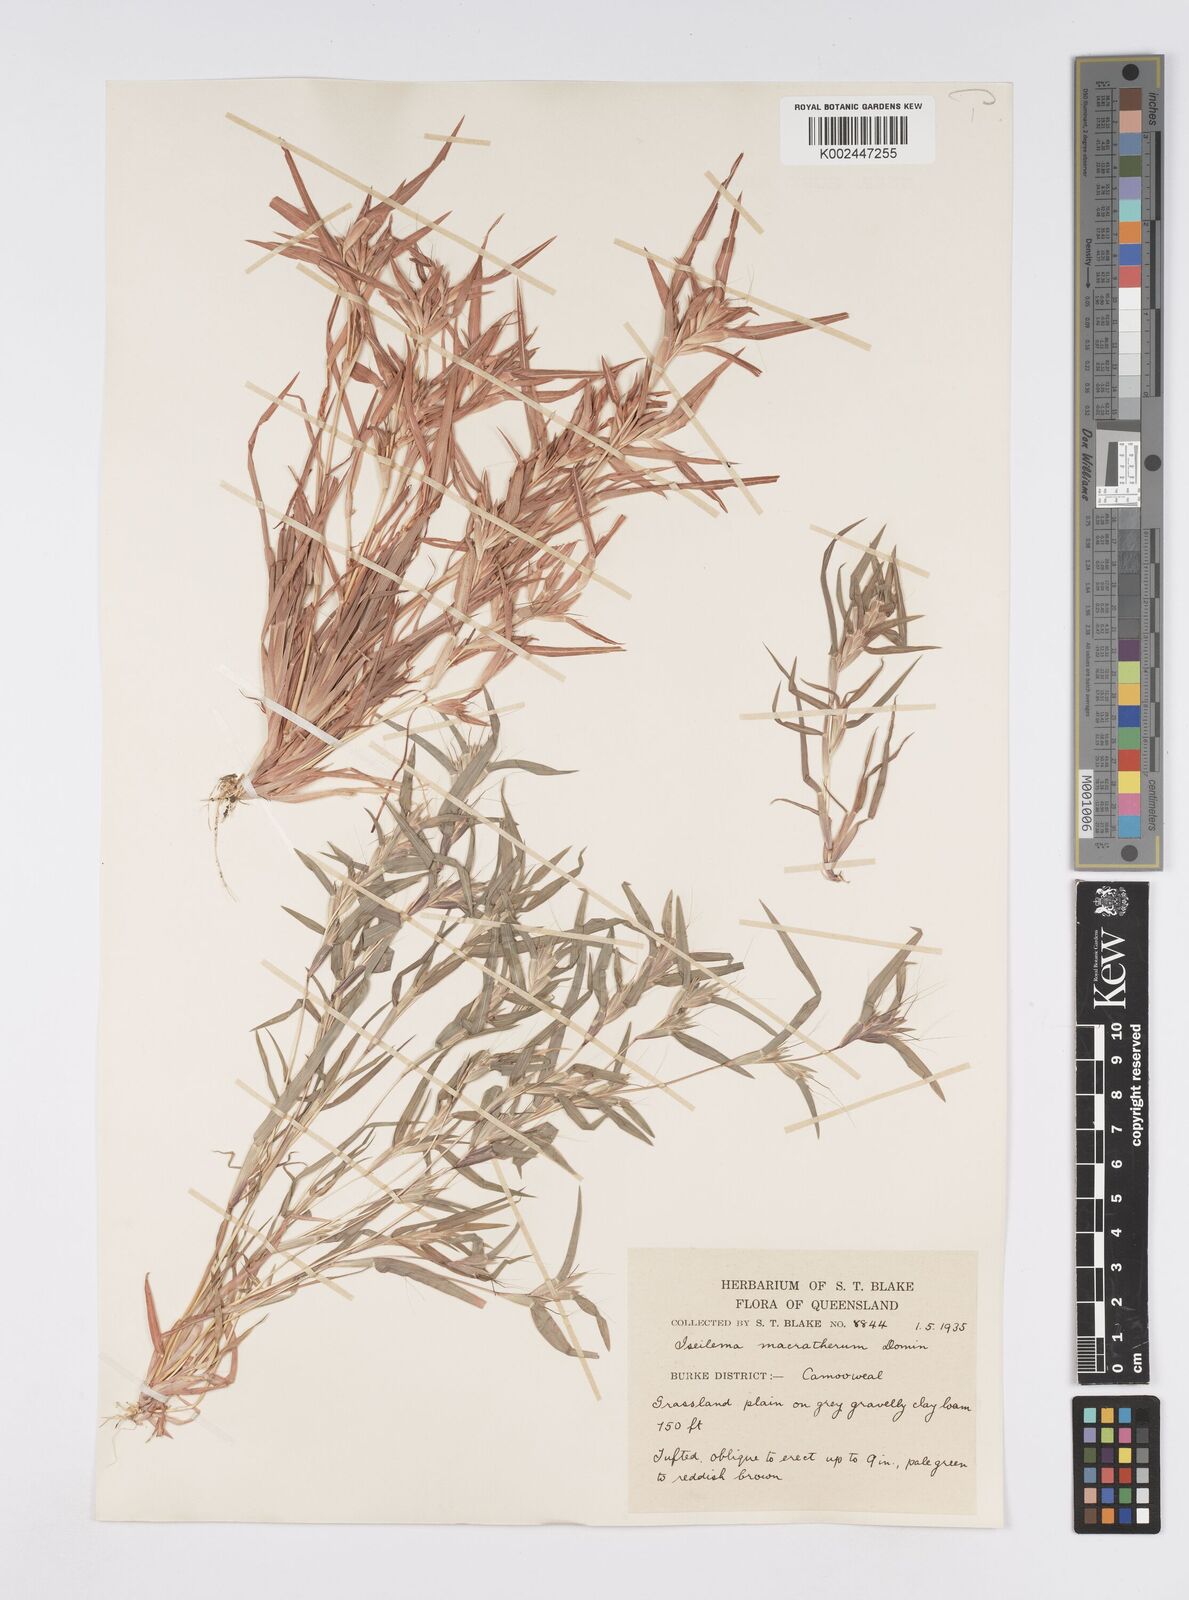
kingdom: Plantae
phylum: Tracheophyta
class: Liliopsida
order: Poales
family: Poaceae
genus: Iseilema
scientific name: Iseilema macratherum
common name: Bull flinders grass
